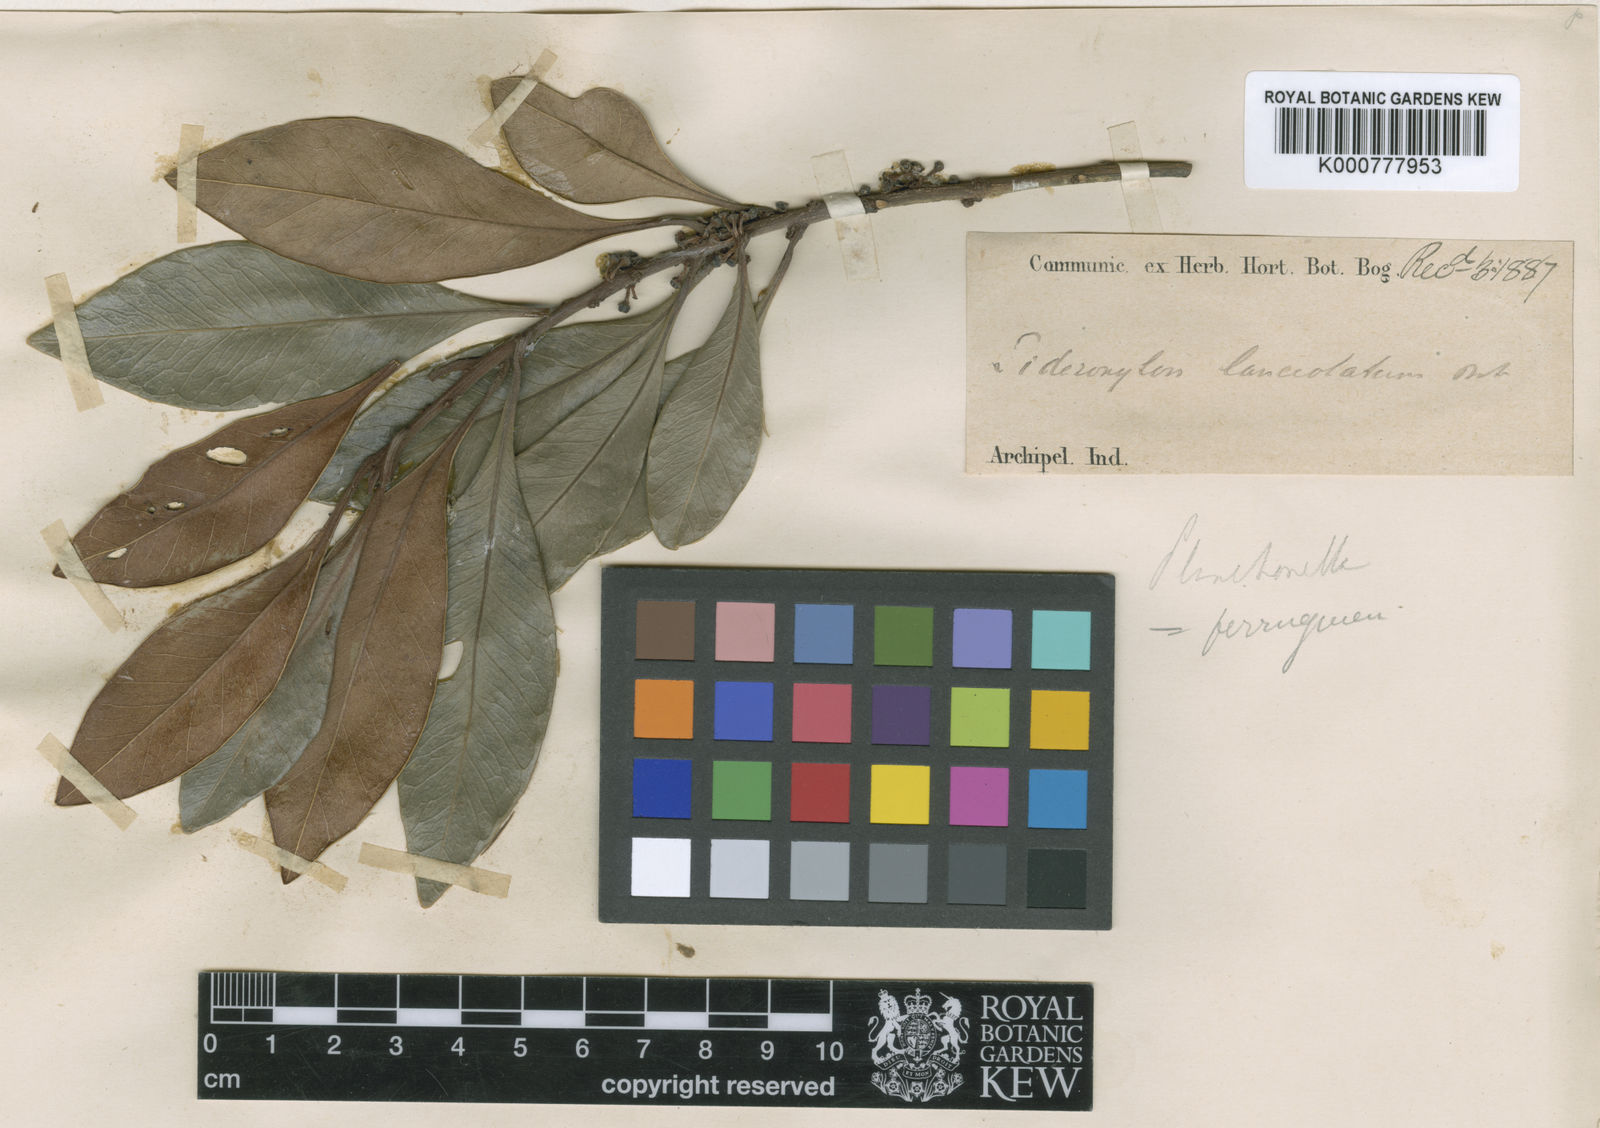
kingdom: Plantae
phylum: Tracheophyta
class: Magnoliopsida
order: Ericales
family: Sapotaceae
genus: Planchonella
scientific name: Planchonella obovata
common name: Black-ash
